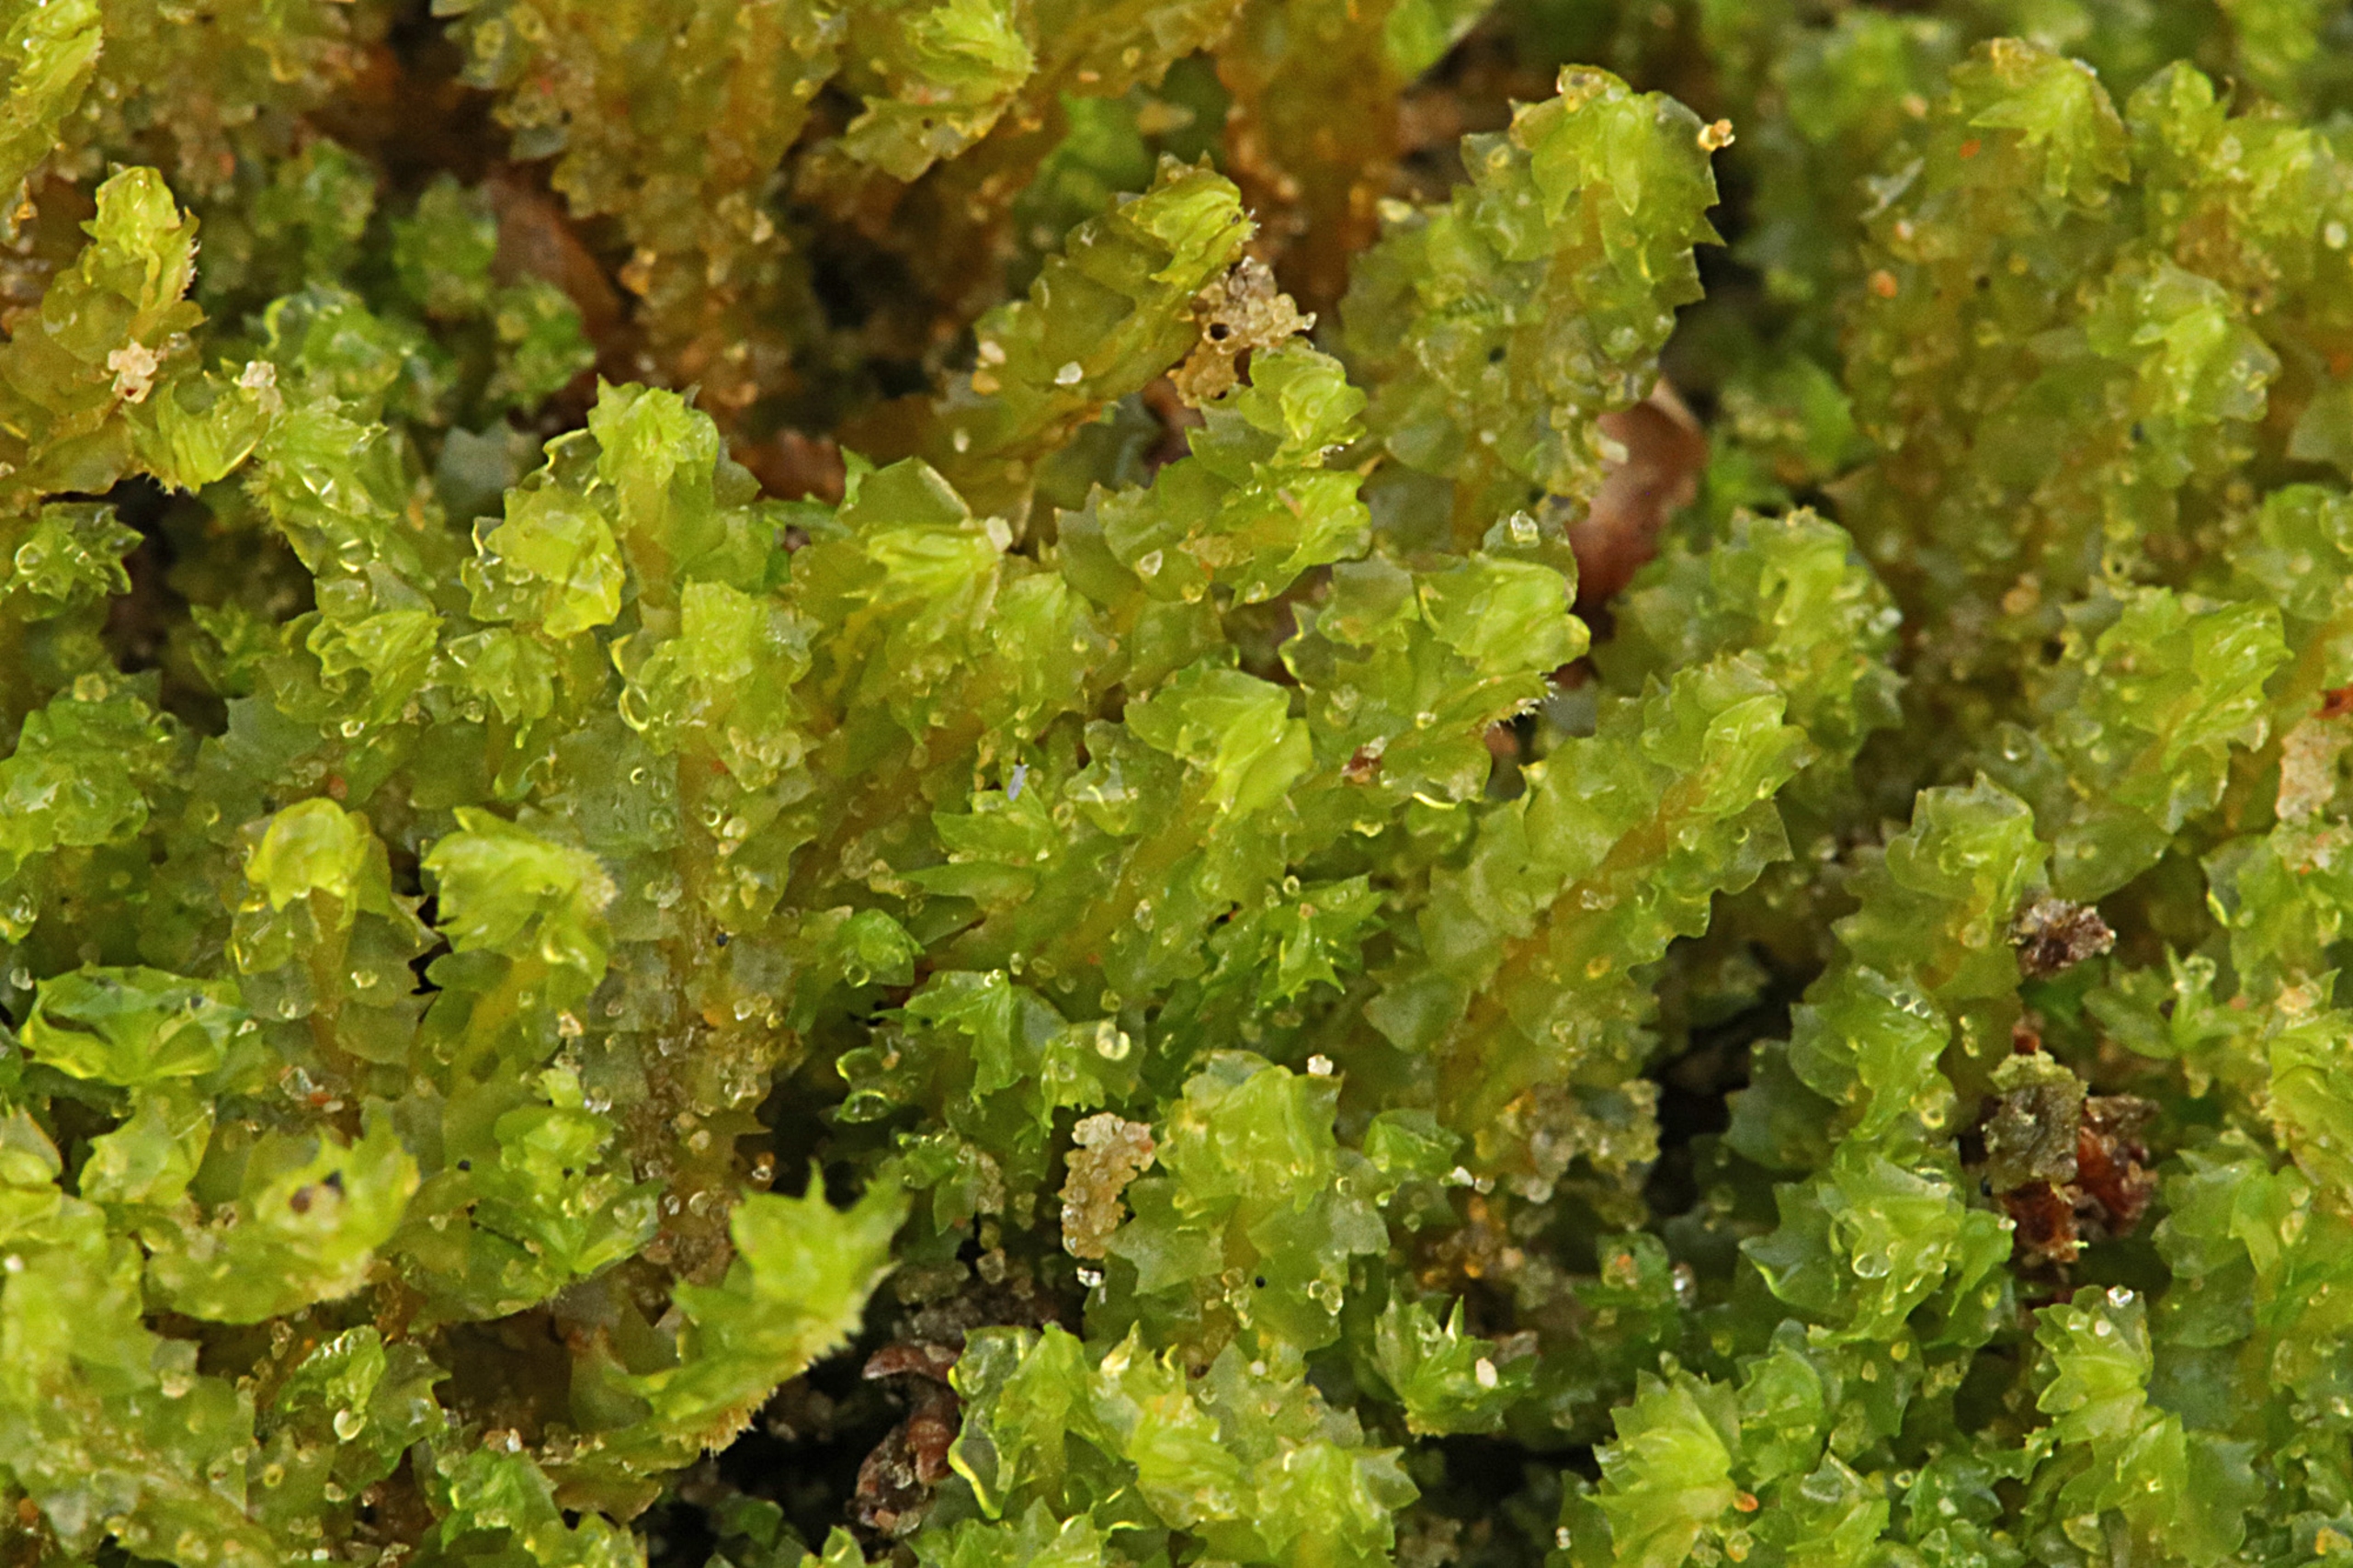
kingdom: Plantae
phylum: Marchantiophyta
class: Jungermanniopsida
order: Jungermanniales
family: Anastrophyllaceae
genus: Barbilophozia
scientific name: Barbilophozia barbata
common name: Skægget flerfligmos
